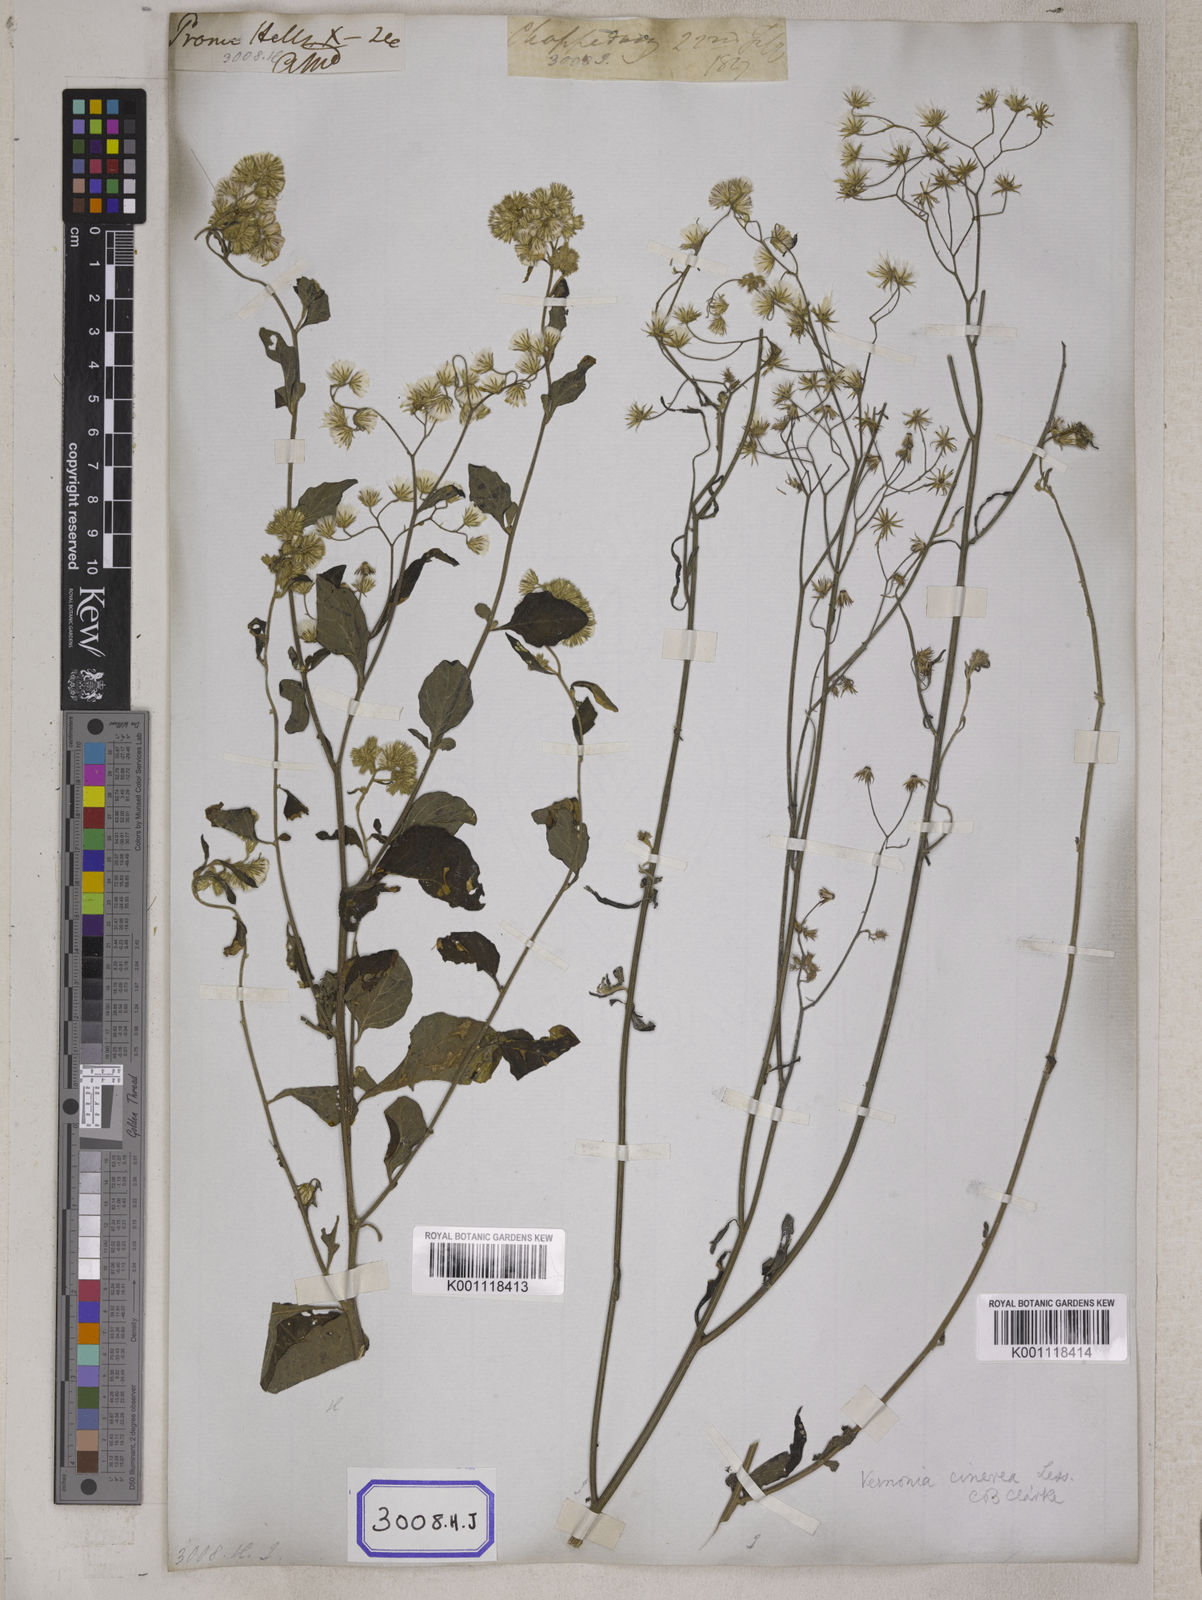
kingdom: Plantae
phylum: Tracheophyta
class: Magnoliopsida
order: Asterales
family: Asteraceae
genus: Cyanthillium
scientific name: Cyanthillium cinereum
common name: Little ironweed
